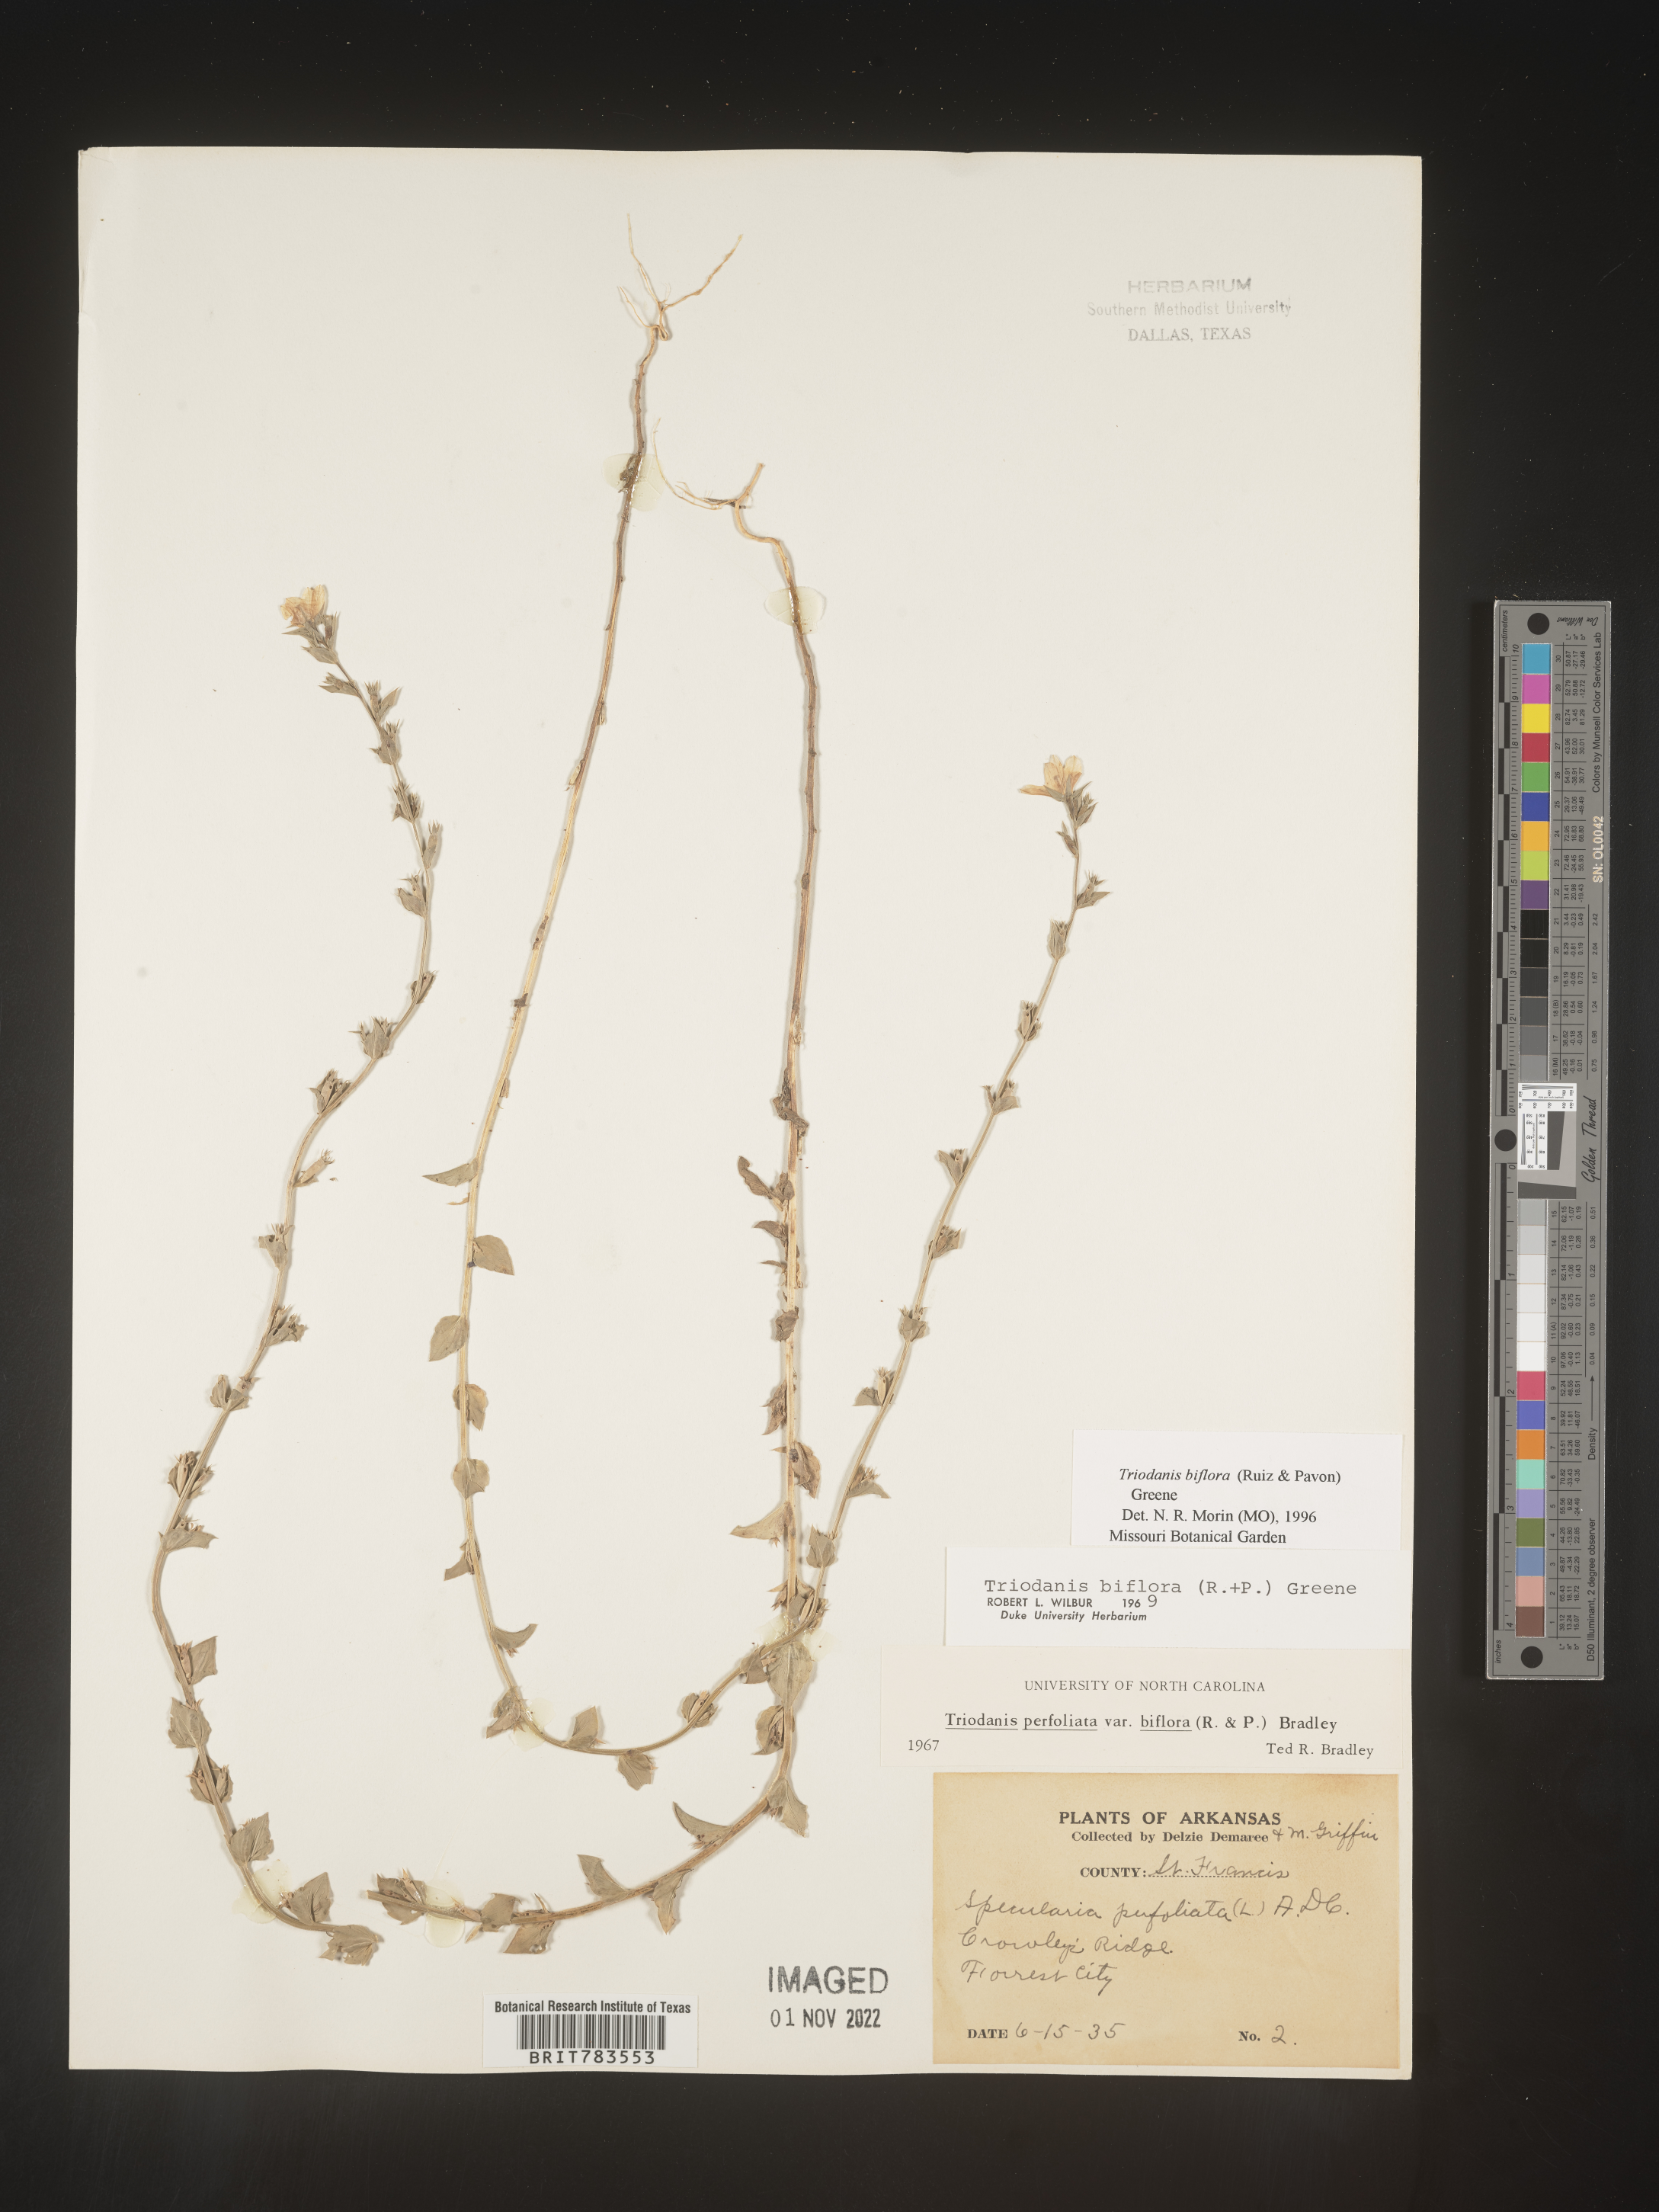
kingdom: Plantae
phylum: Tracheophyta
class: Magnoliopsida
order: Asterales
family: Campanulaceae
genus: Triodanis
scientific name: Triodanis perfoliata
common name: Clasping venus' looking-glass
